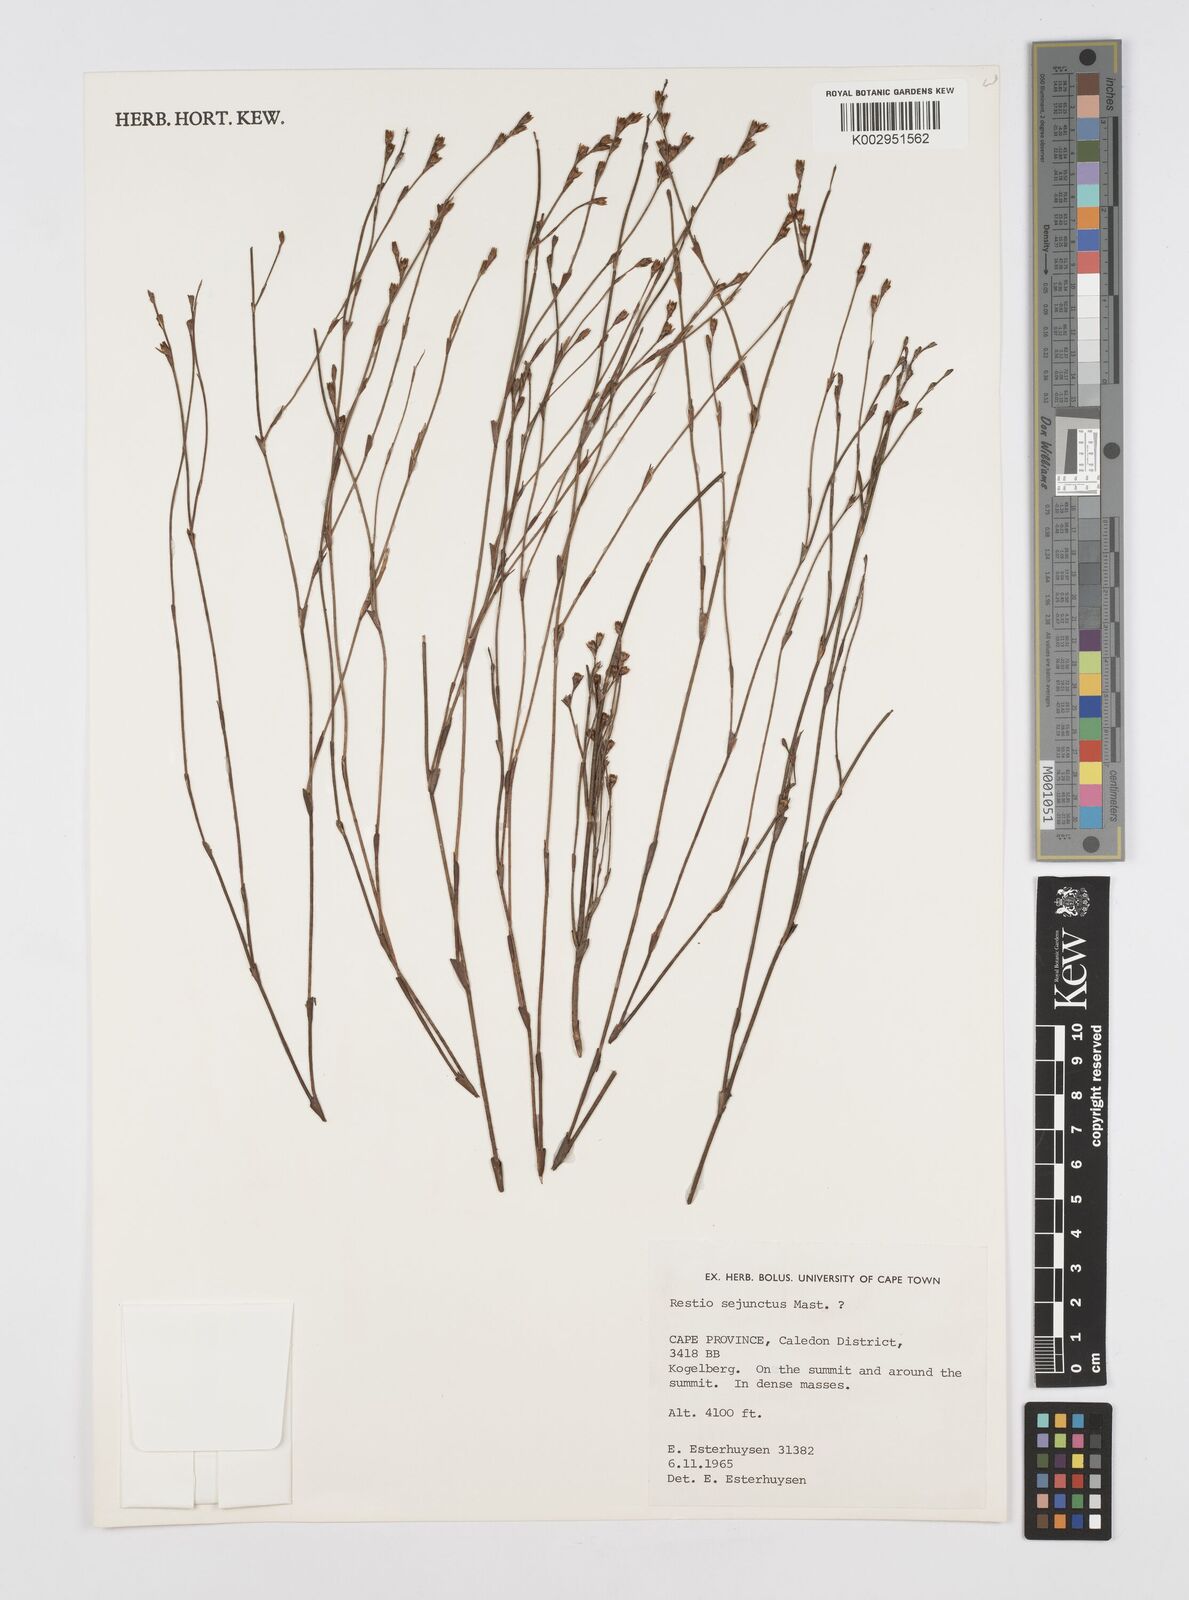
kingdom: Plantae
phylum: Tracheophyta
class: Liliopsida
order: Poales
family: Restionaceae
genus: Restio
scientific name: Restio sejunctus
